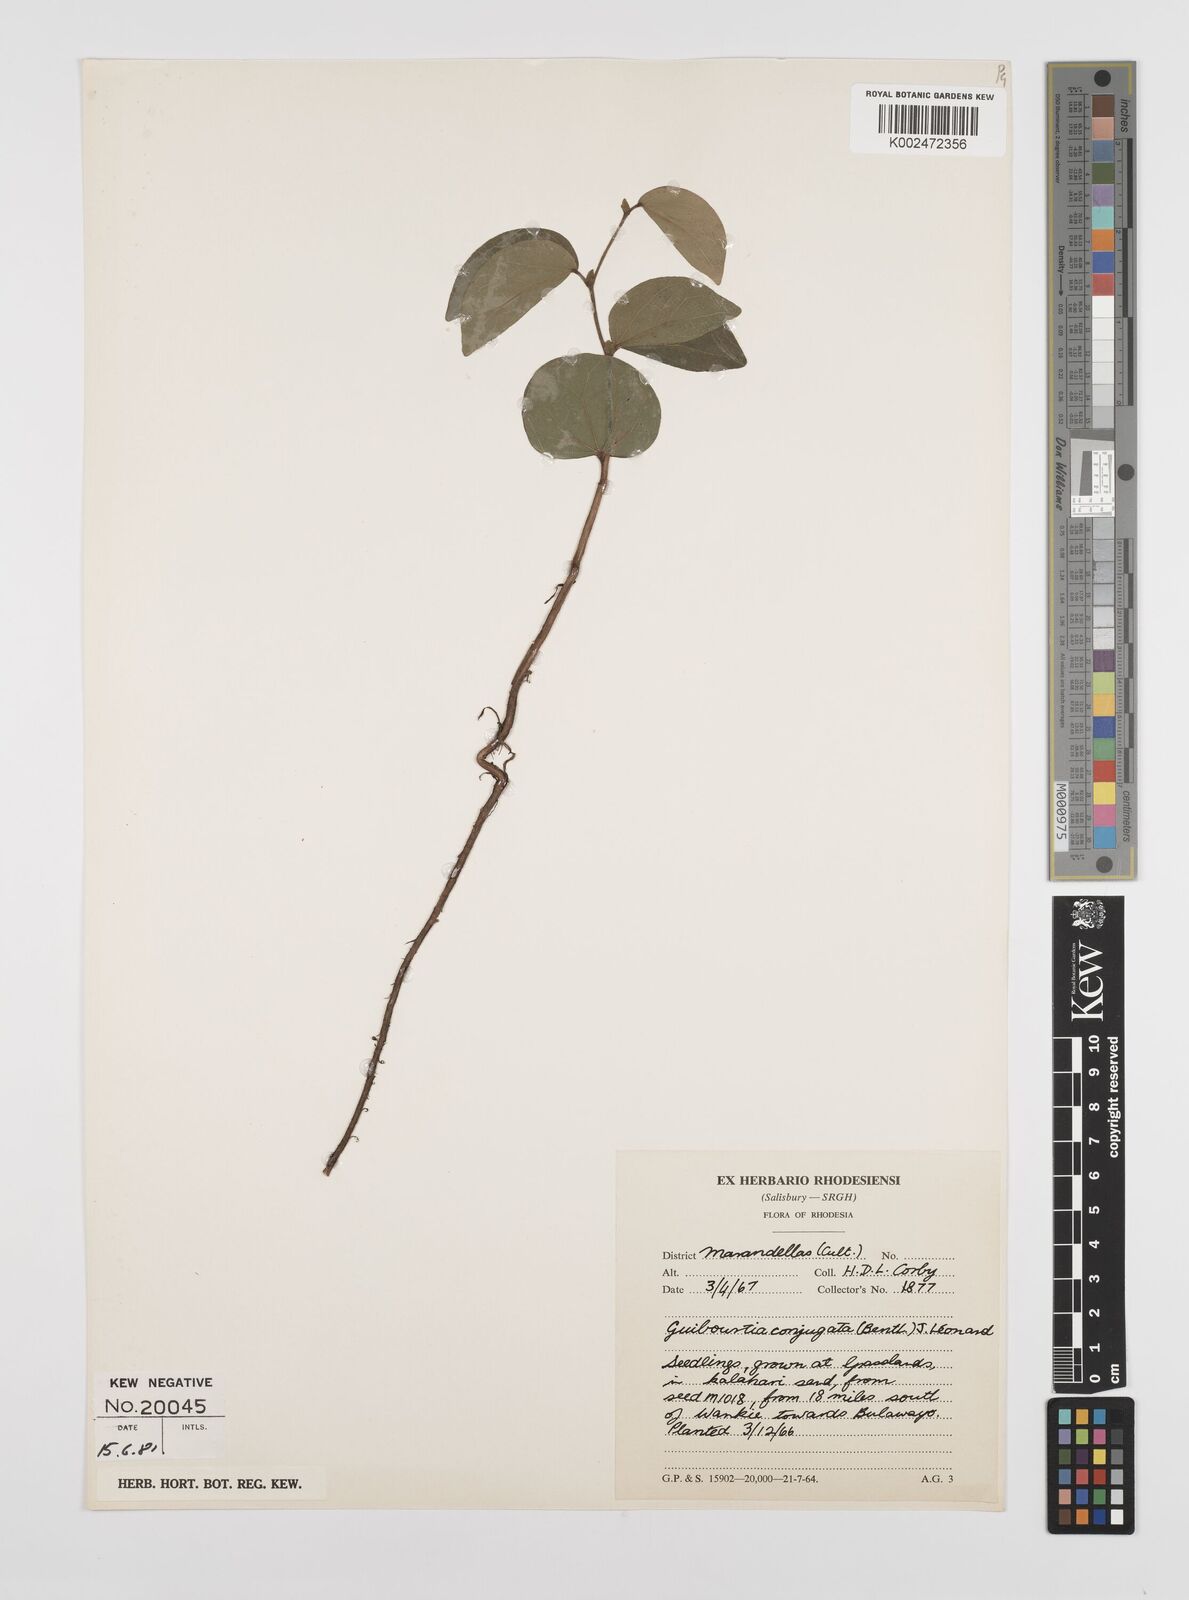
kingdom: Plantae
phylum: Tracheophyta
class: Magnoliopsida
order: Fabales
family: Fabaceae
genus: Guibourtia
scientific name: Guibourtia conjugata
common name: Small bastard mopane
